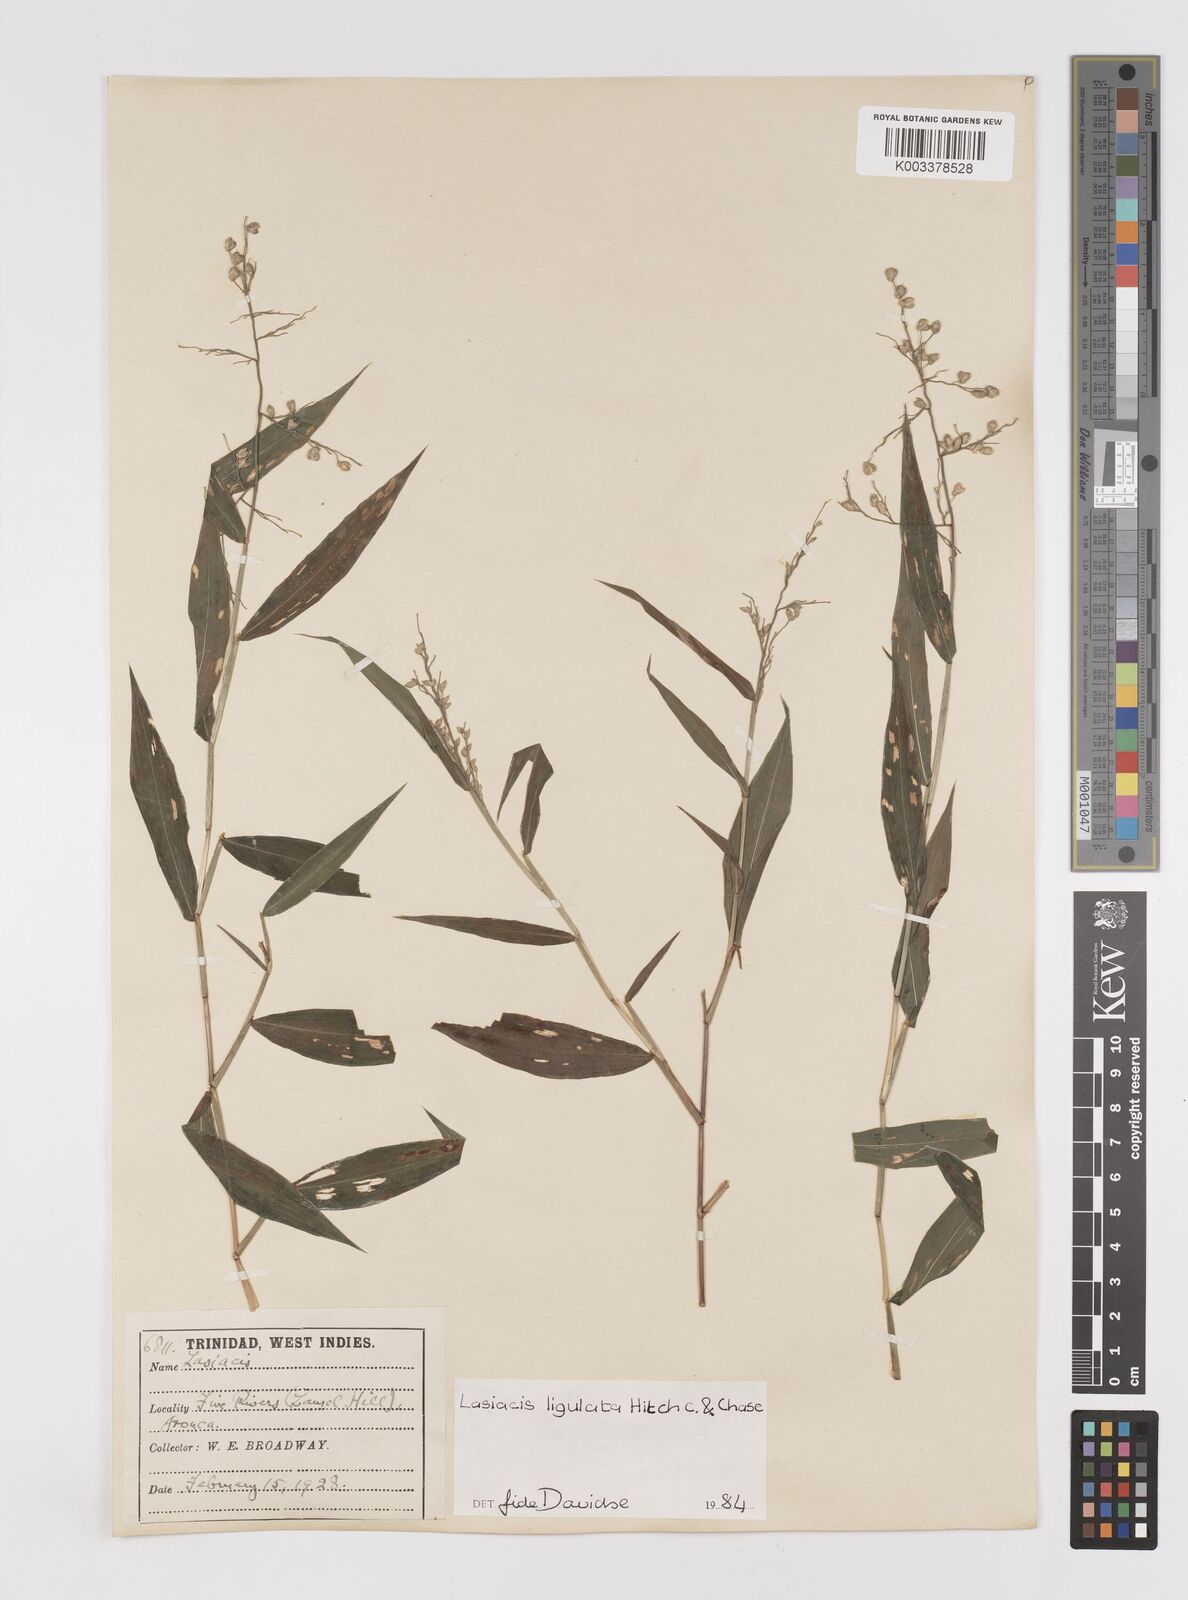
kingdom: Plantae
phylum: Tracheophyta
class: Liliopsida
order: Poales
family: Poaceae
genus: Lasiacis
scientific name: Lasiacis ligulata
